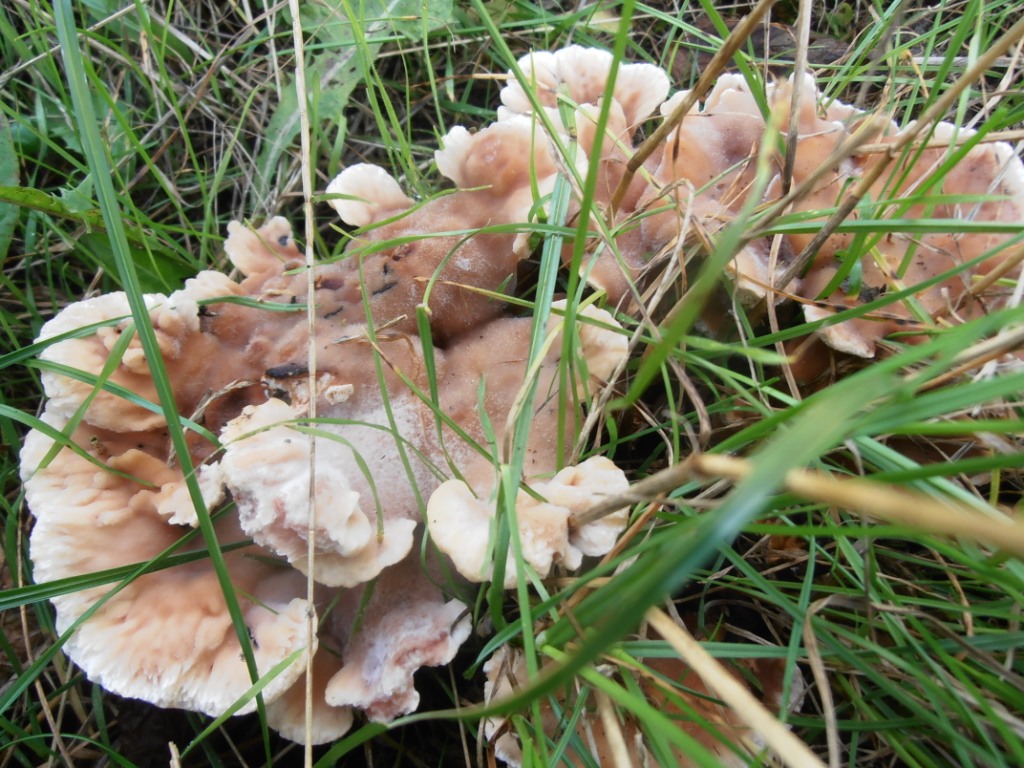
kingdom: Fungi
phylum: Basidiomycota
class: Agaricomycetes
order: Polyporales
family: Podoscyphaceae
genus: Abortiporus
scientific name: Abortiporus biennis
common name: rødmende pjalteporesvamp
